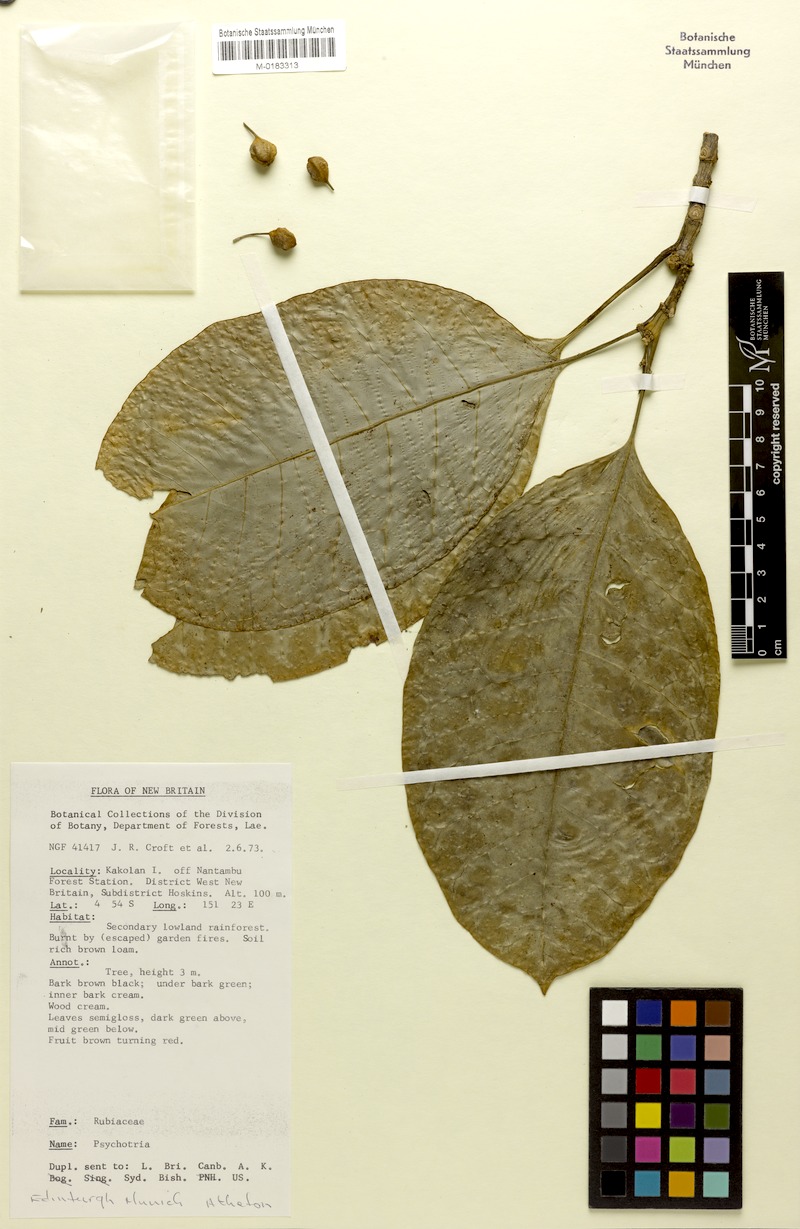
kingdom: Plantae
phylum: Tracheophyta
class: Magnoliopsida
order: Gentianales
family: Rubiaceae
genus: Eumachia
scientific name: Eumachia saidoriensis
